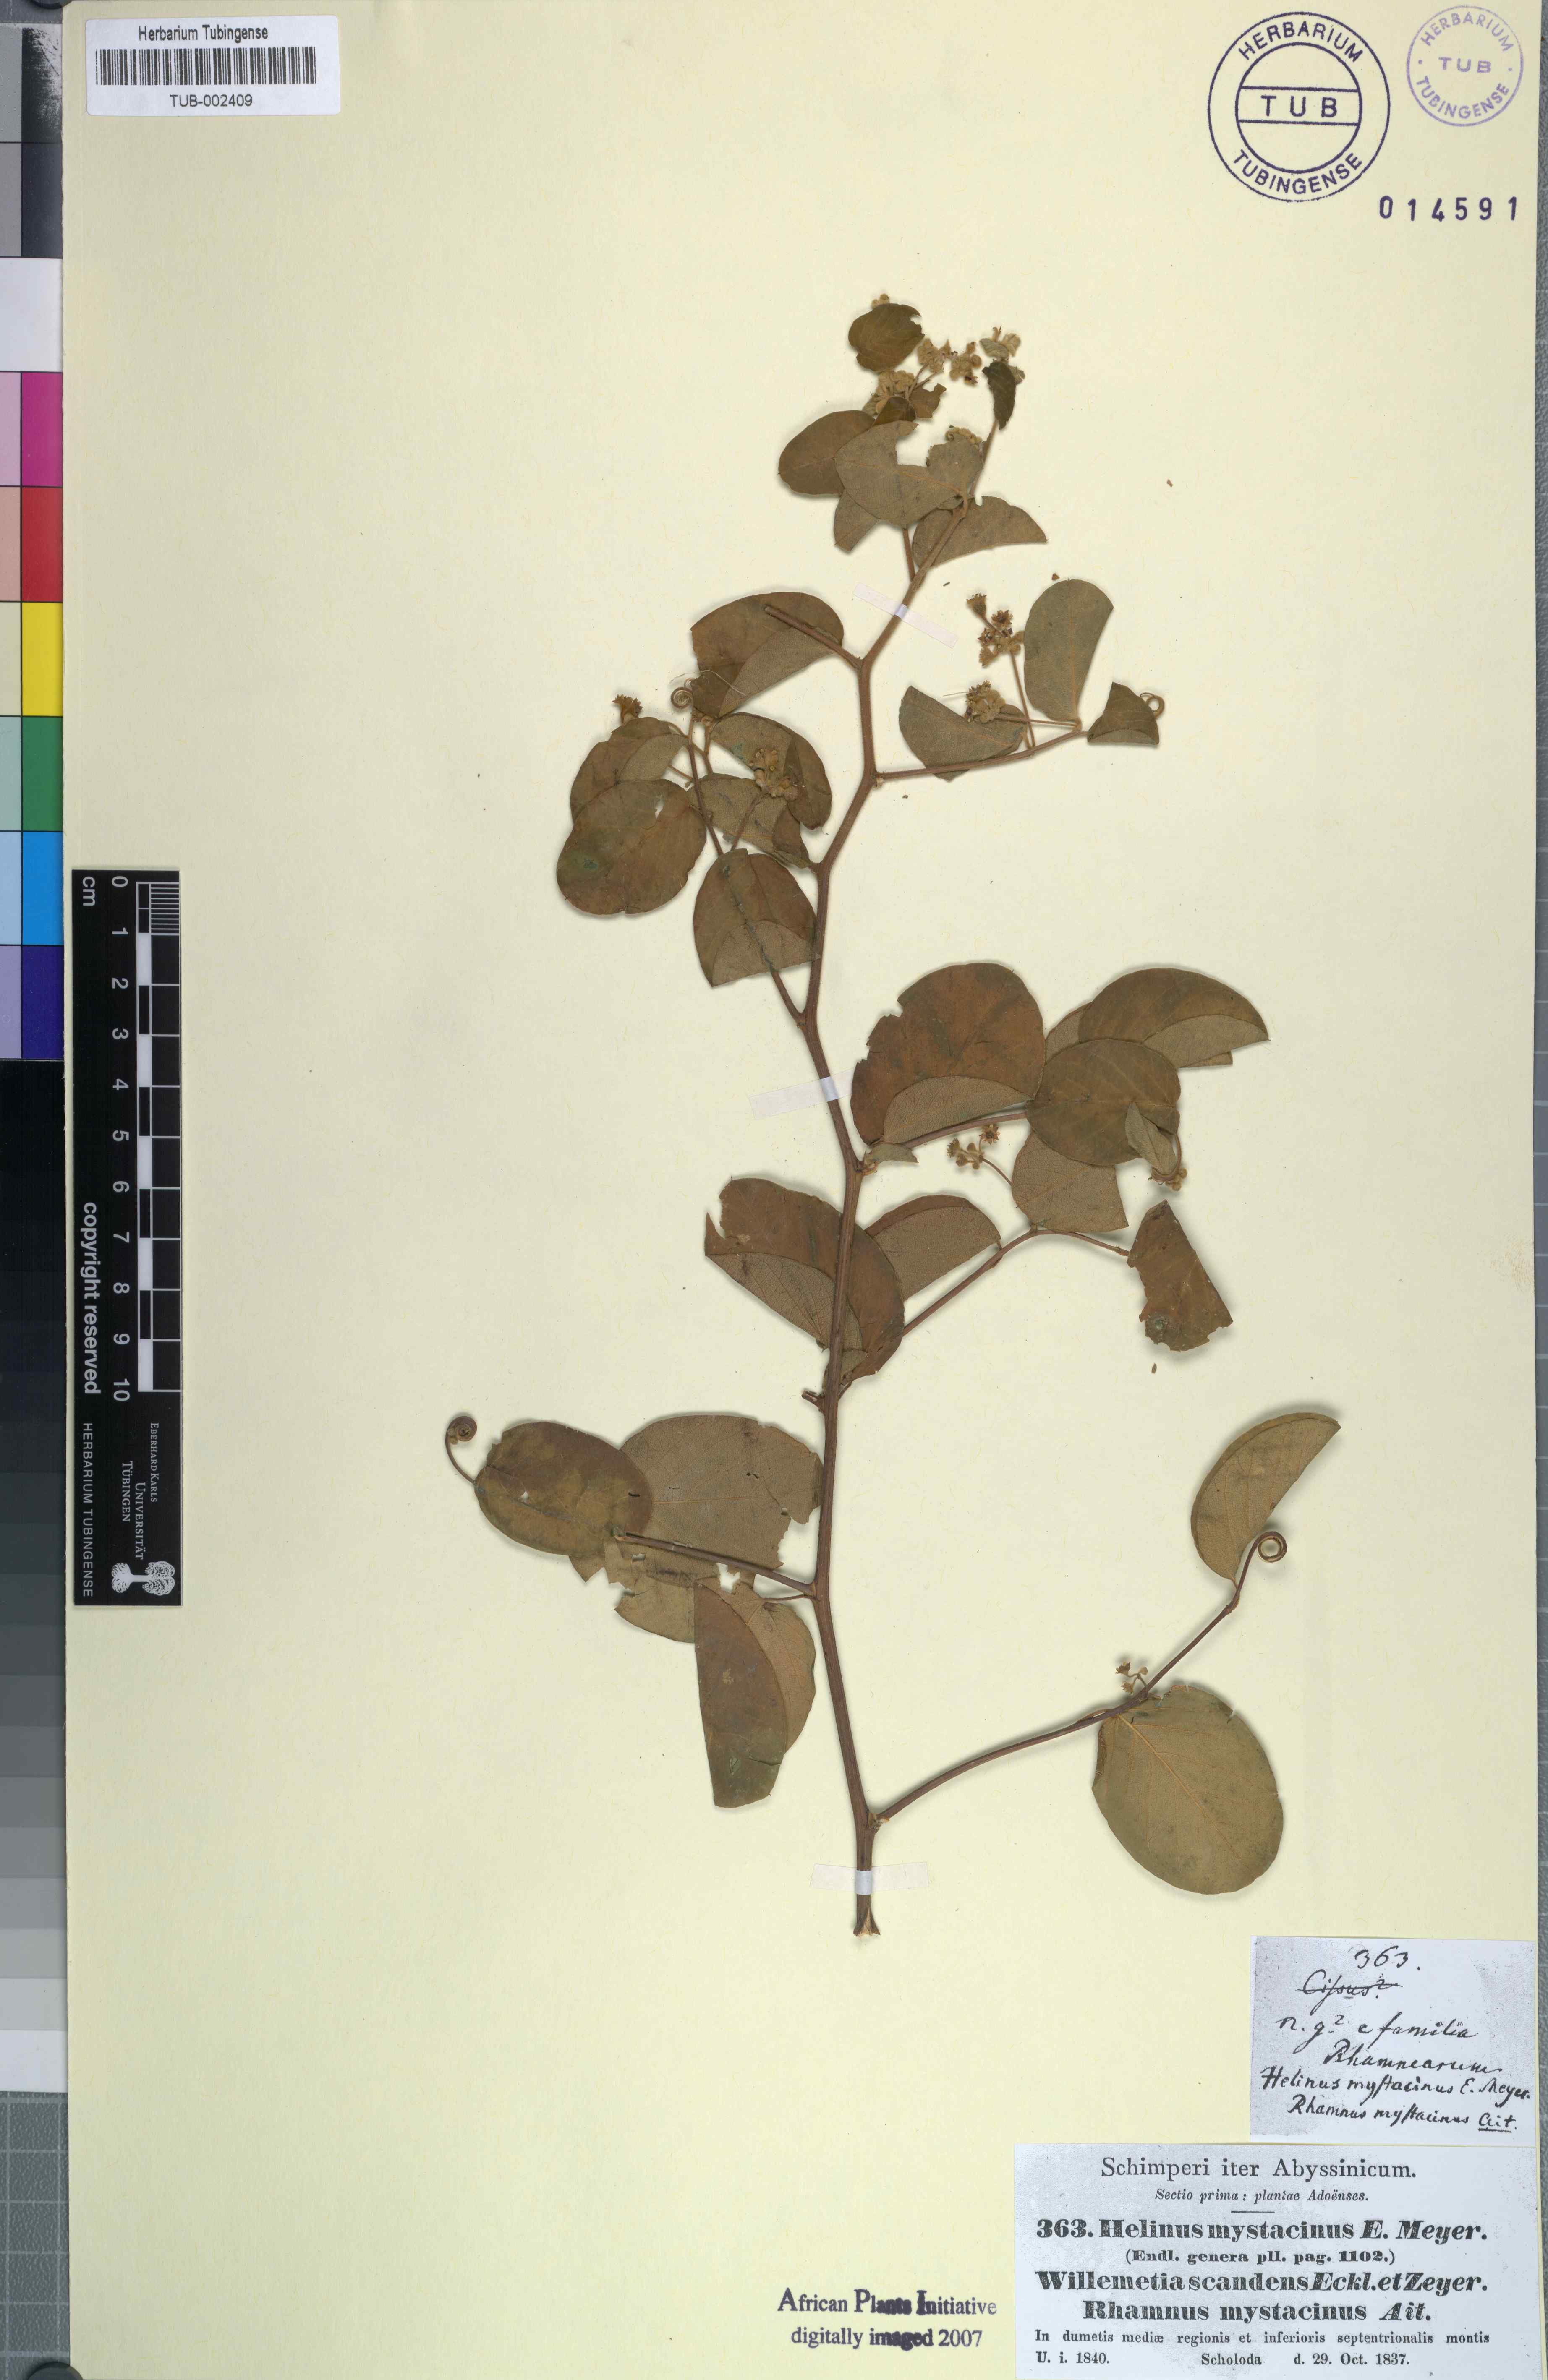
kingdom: Plantae
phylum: Tracheophyta
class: Magnoliopsida
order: Rosales
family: Rhamnaceae
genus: Helinus
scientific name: Helinus mystacinus
